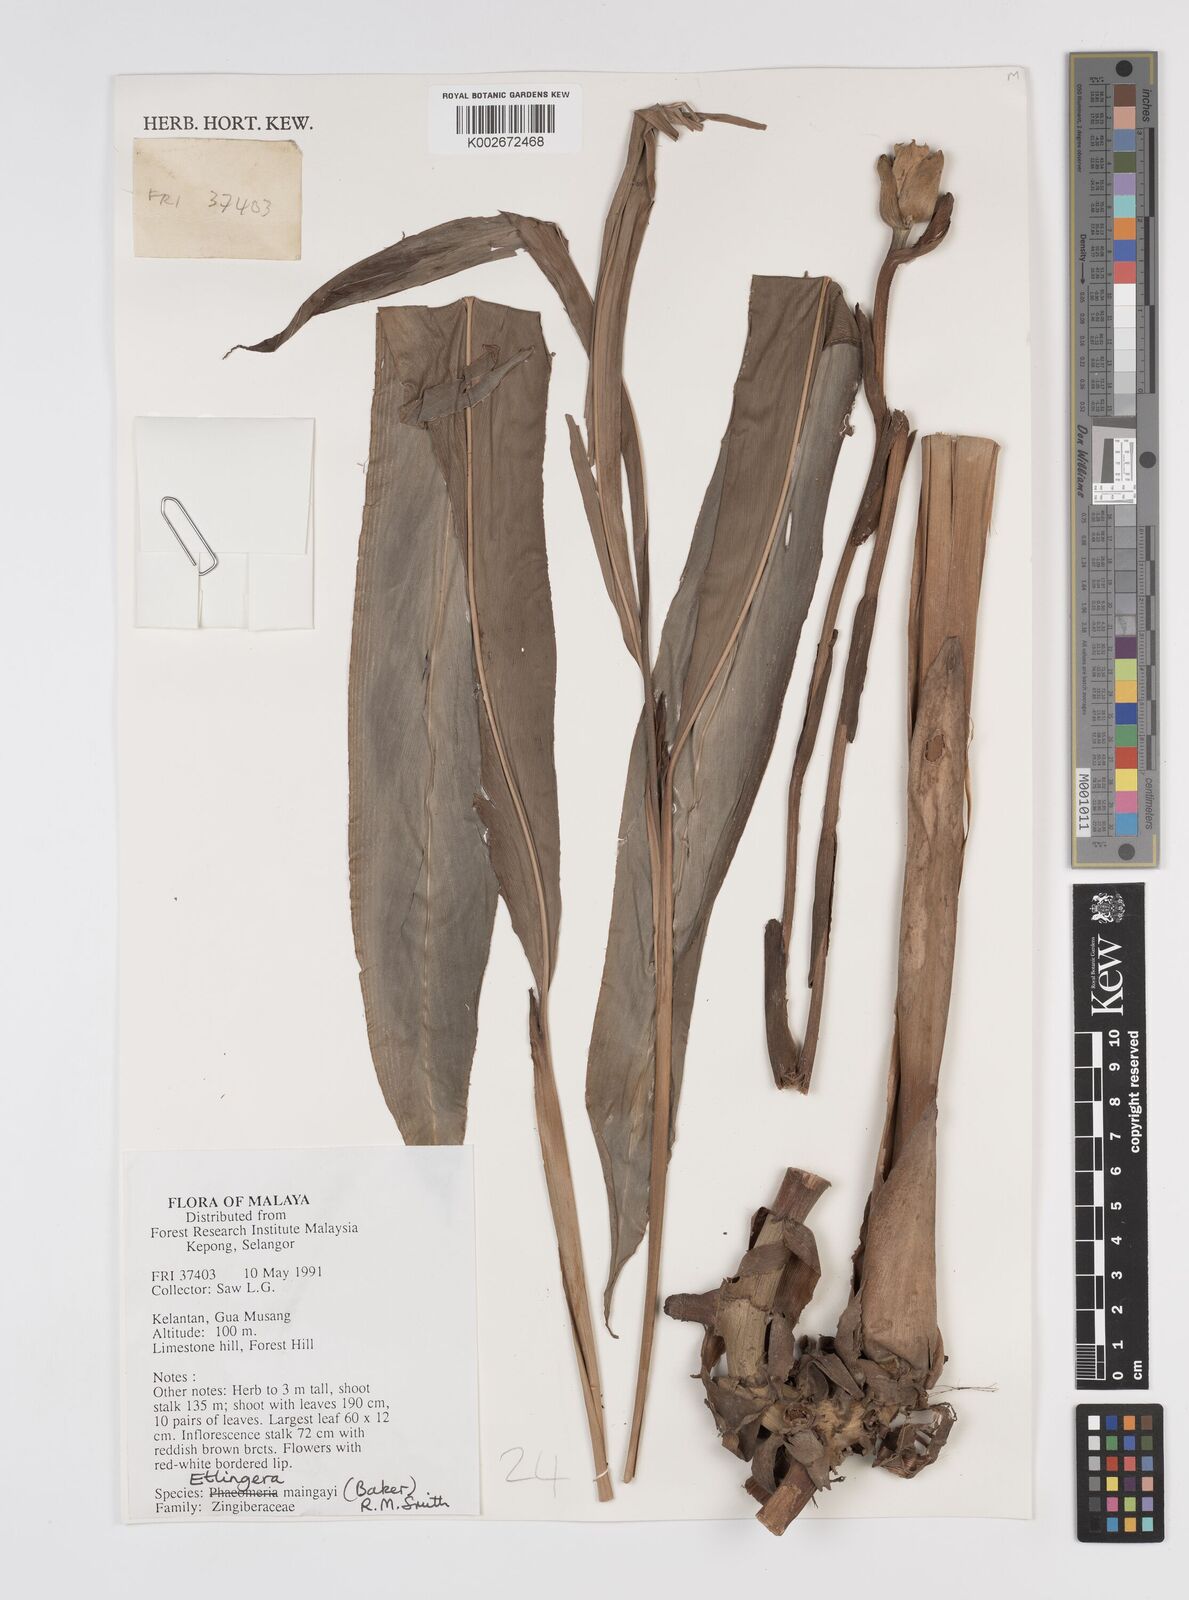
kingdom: Plantae
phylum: Tracheophyta
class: Liliopsida
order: Zingiberales
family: Zingiberaceae
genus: Etlingera
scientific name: Etlingera maingayi
